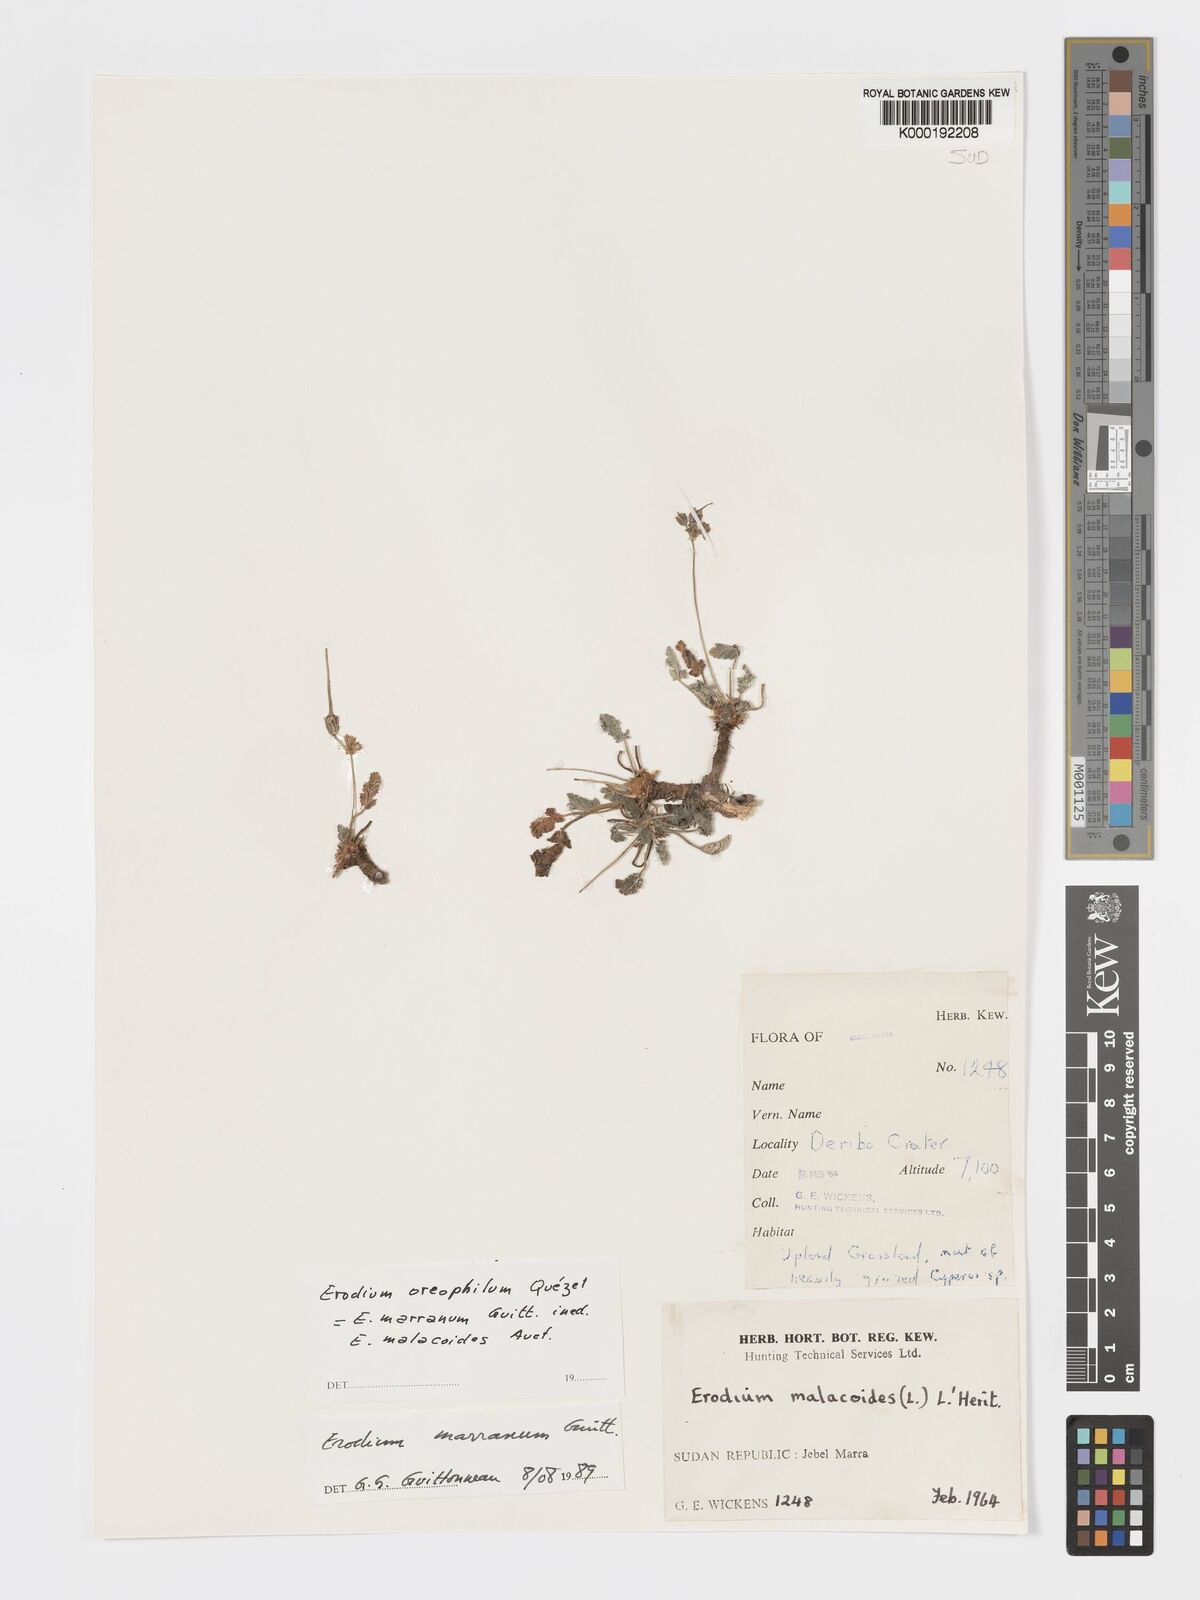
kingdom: Plantae
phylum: Tracheophyta
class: Magnoliopsida
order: Geraniales
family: Geraniaceae
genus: Erodium
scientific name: Erodium oreophilum
